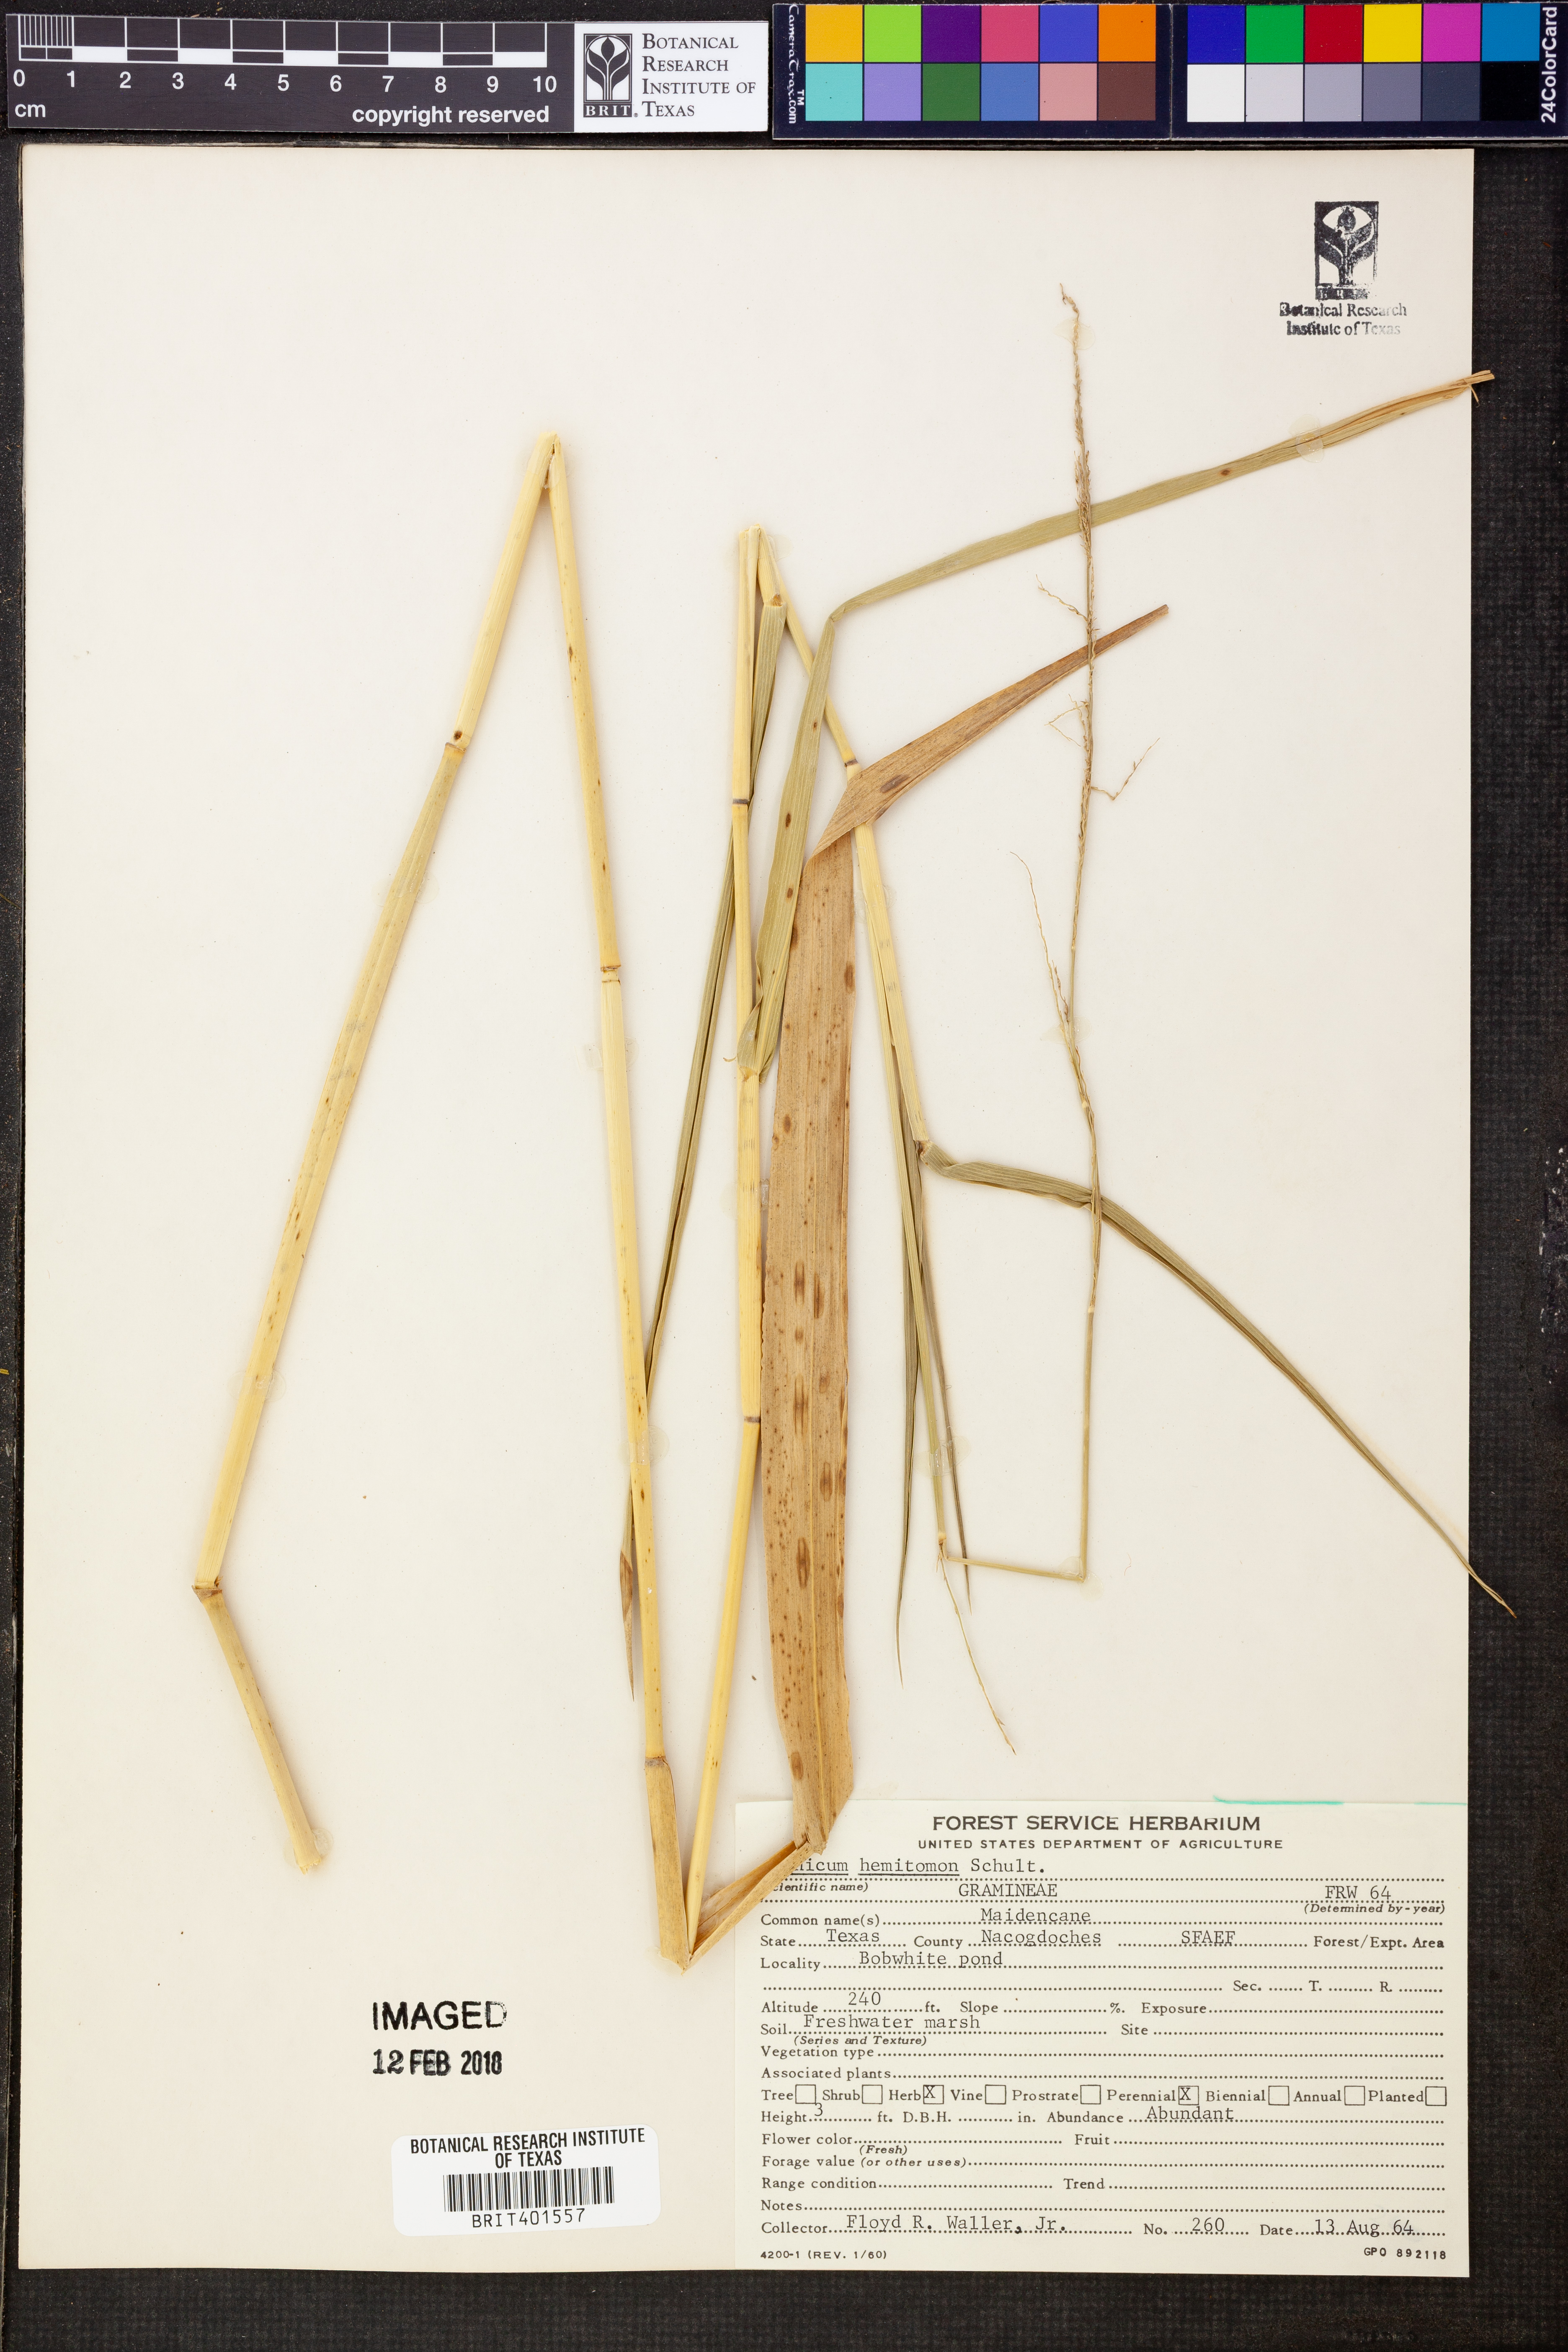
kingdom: Plantae
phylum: Tracheophyta
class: Liliopsida
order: Poales
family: Poaceae
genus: Panicum
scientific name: Panicum hemitomon
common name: Maidencane
